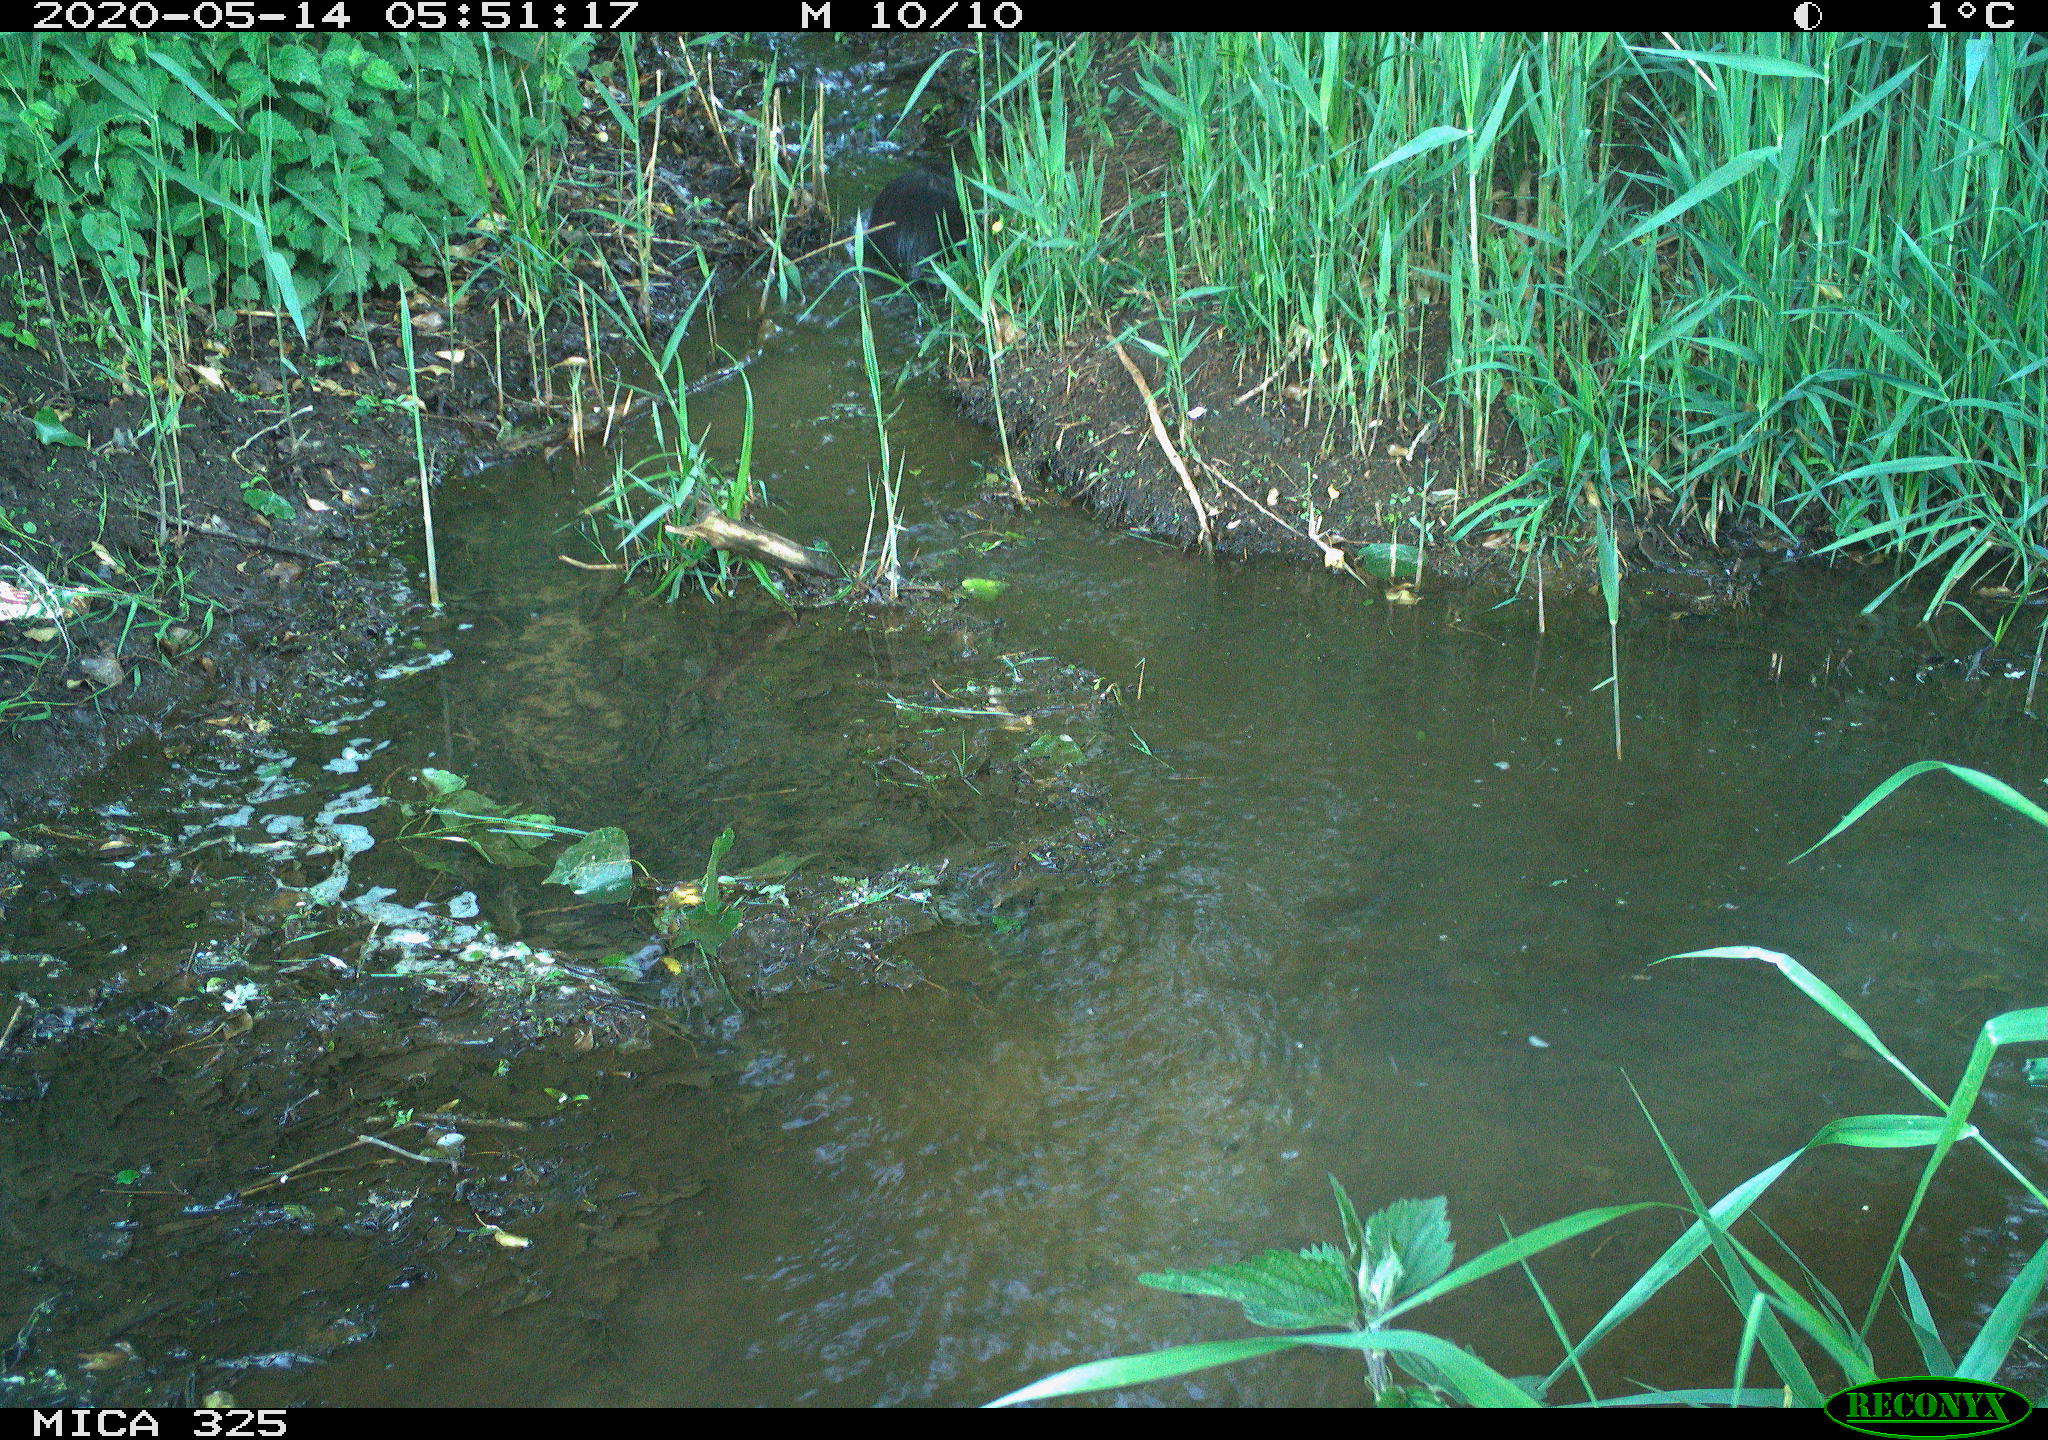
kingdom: Animalia
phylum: Chordata
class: Mammalia
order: Rodentia
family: Myocastoridae
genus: Myocastor
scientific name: Myocastor coypus
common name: Coypu
